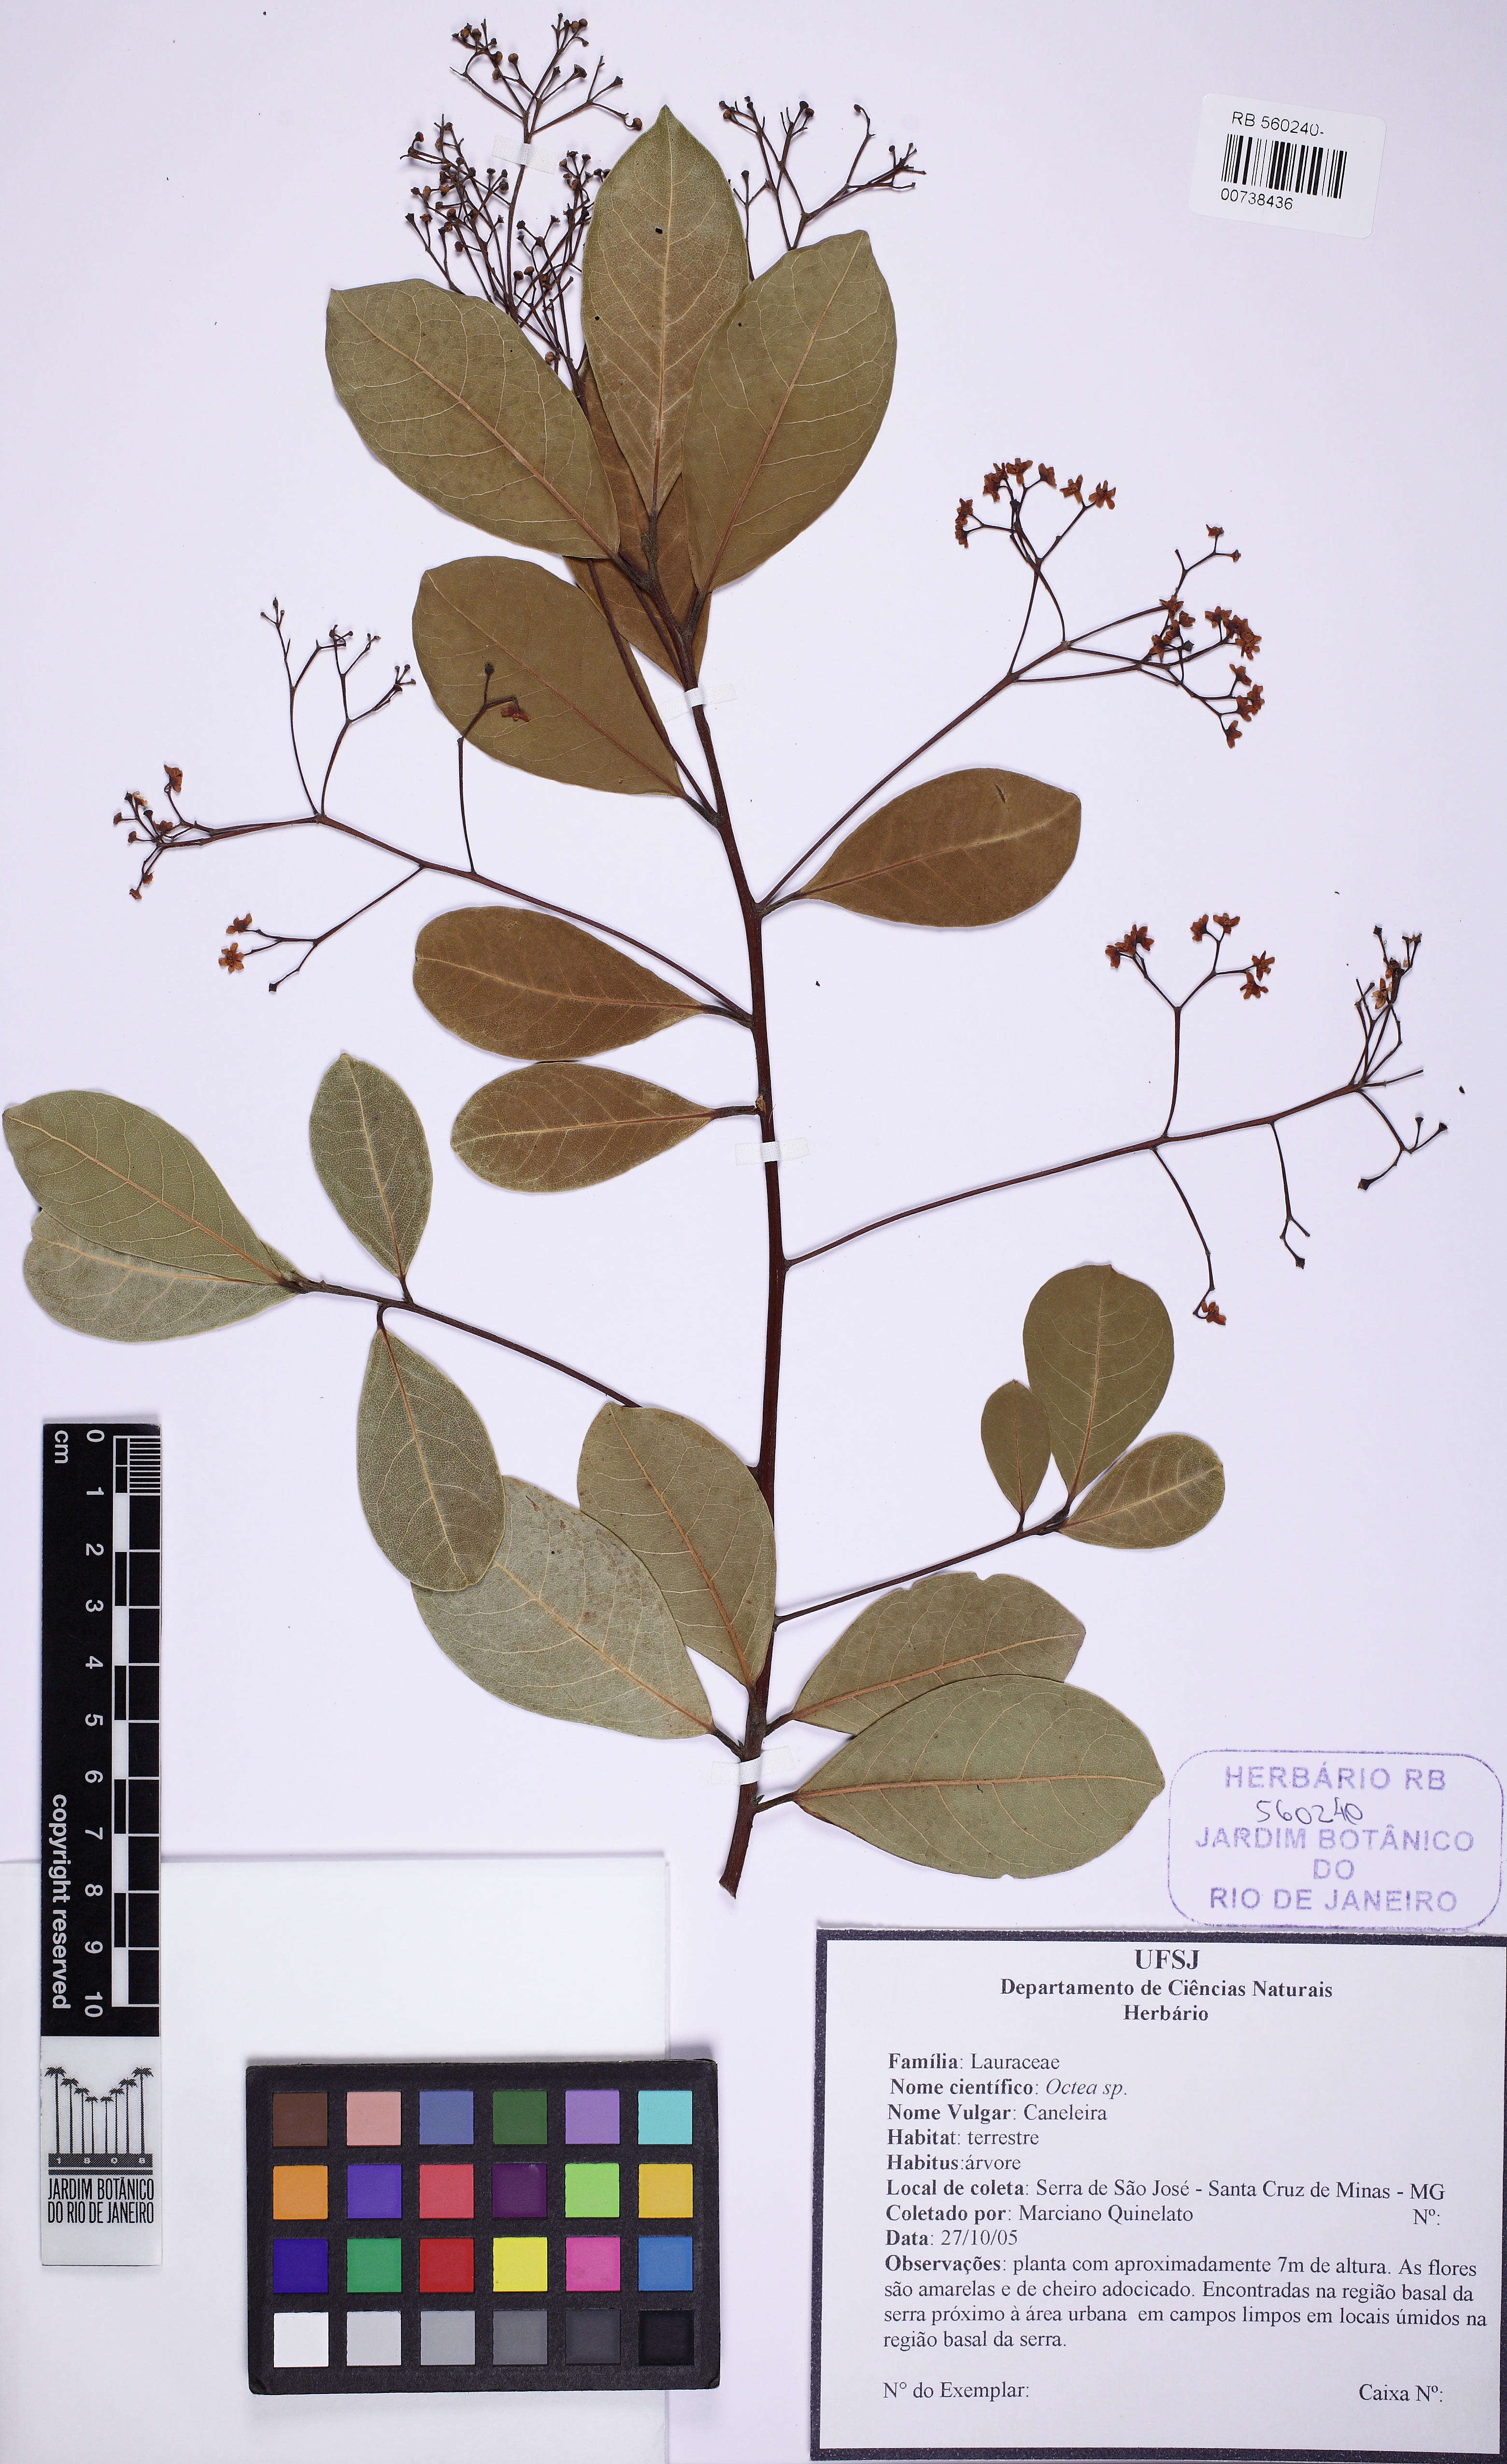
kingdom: Plantae
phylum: Tracheophyta
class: Magnoliopsida
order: Laurales
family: Lauraceae
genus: Nectandra
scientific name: Nectandra
